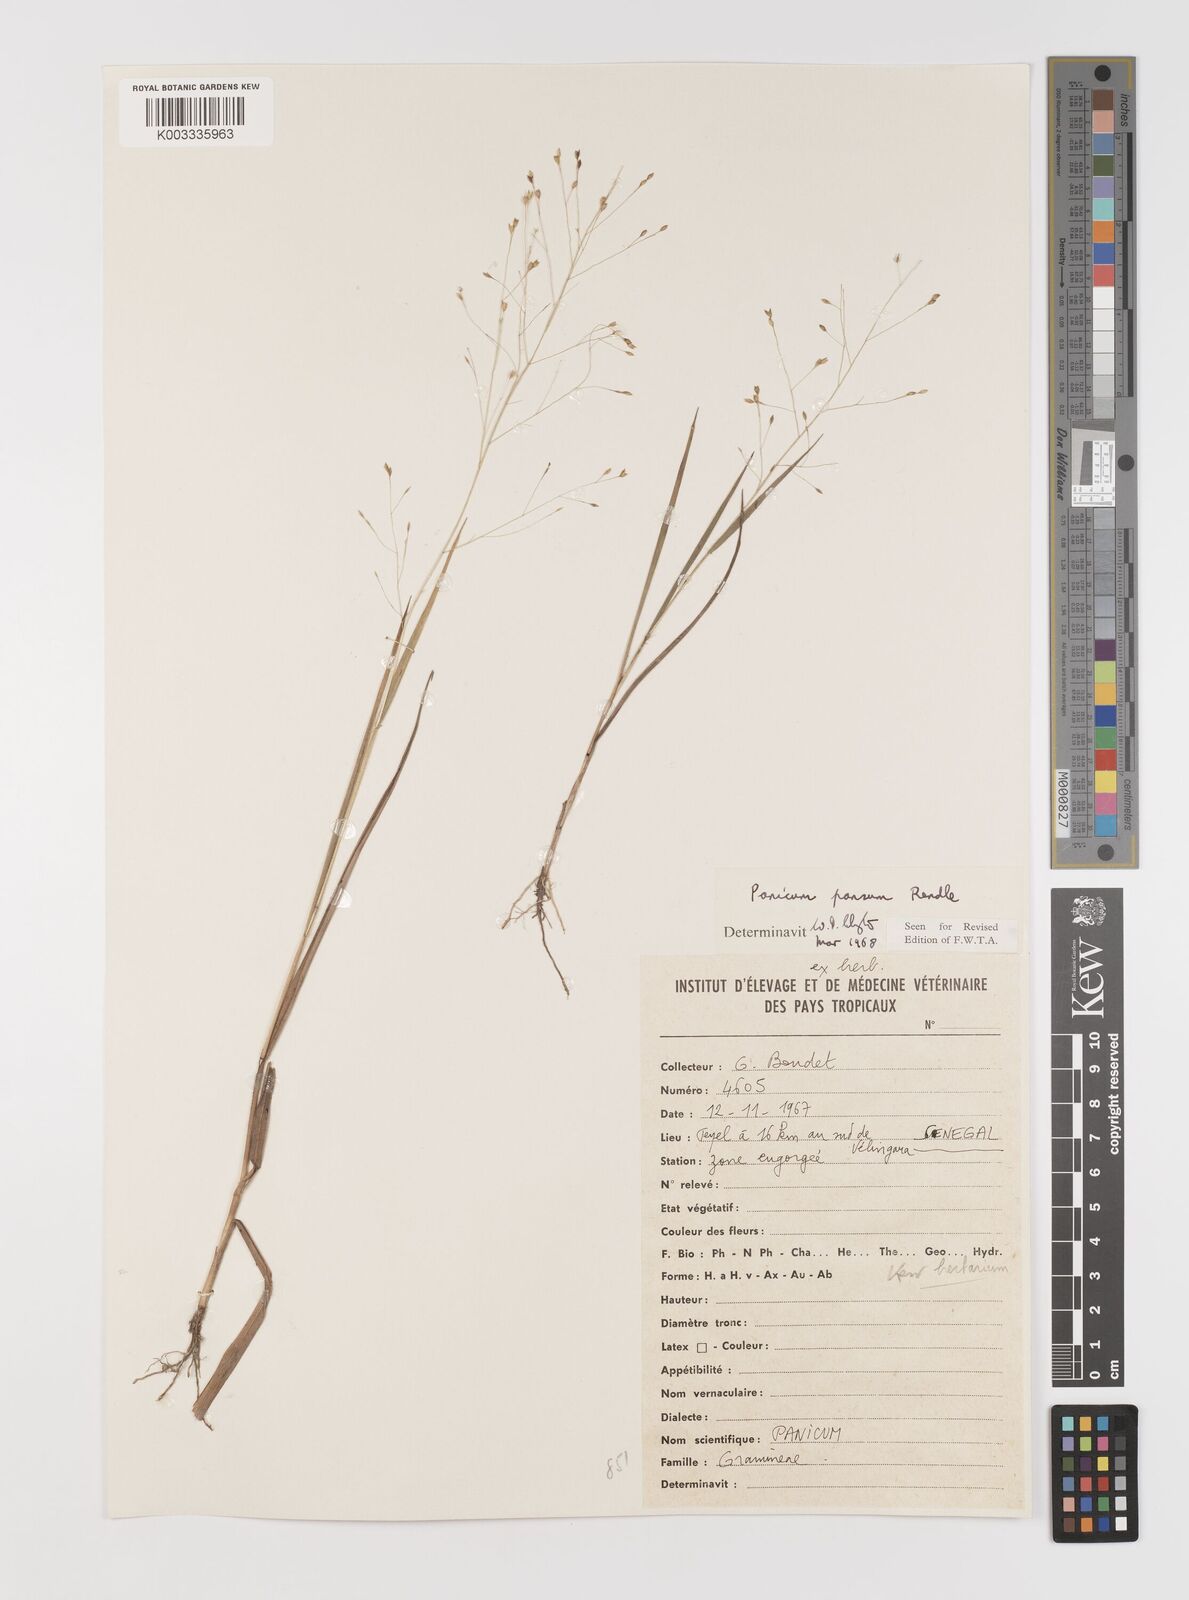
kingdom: Plantae
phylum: Tracheophyta
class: Liliopsida
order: Poales
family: Poaceae
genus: Panicum
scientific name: Panicum pansum
